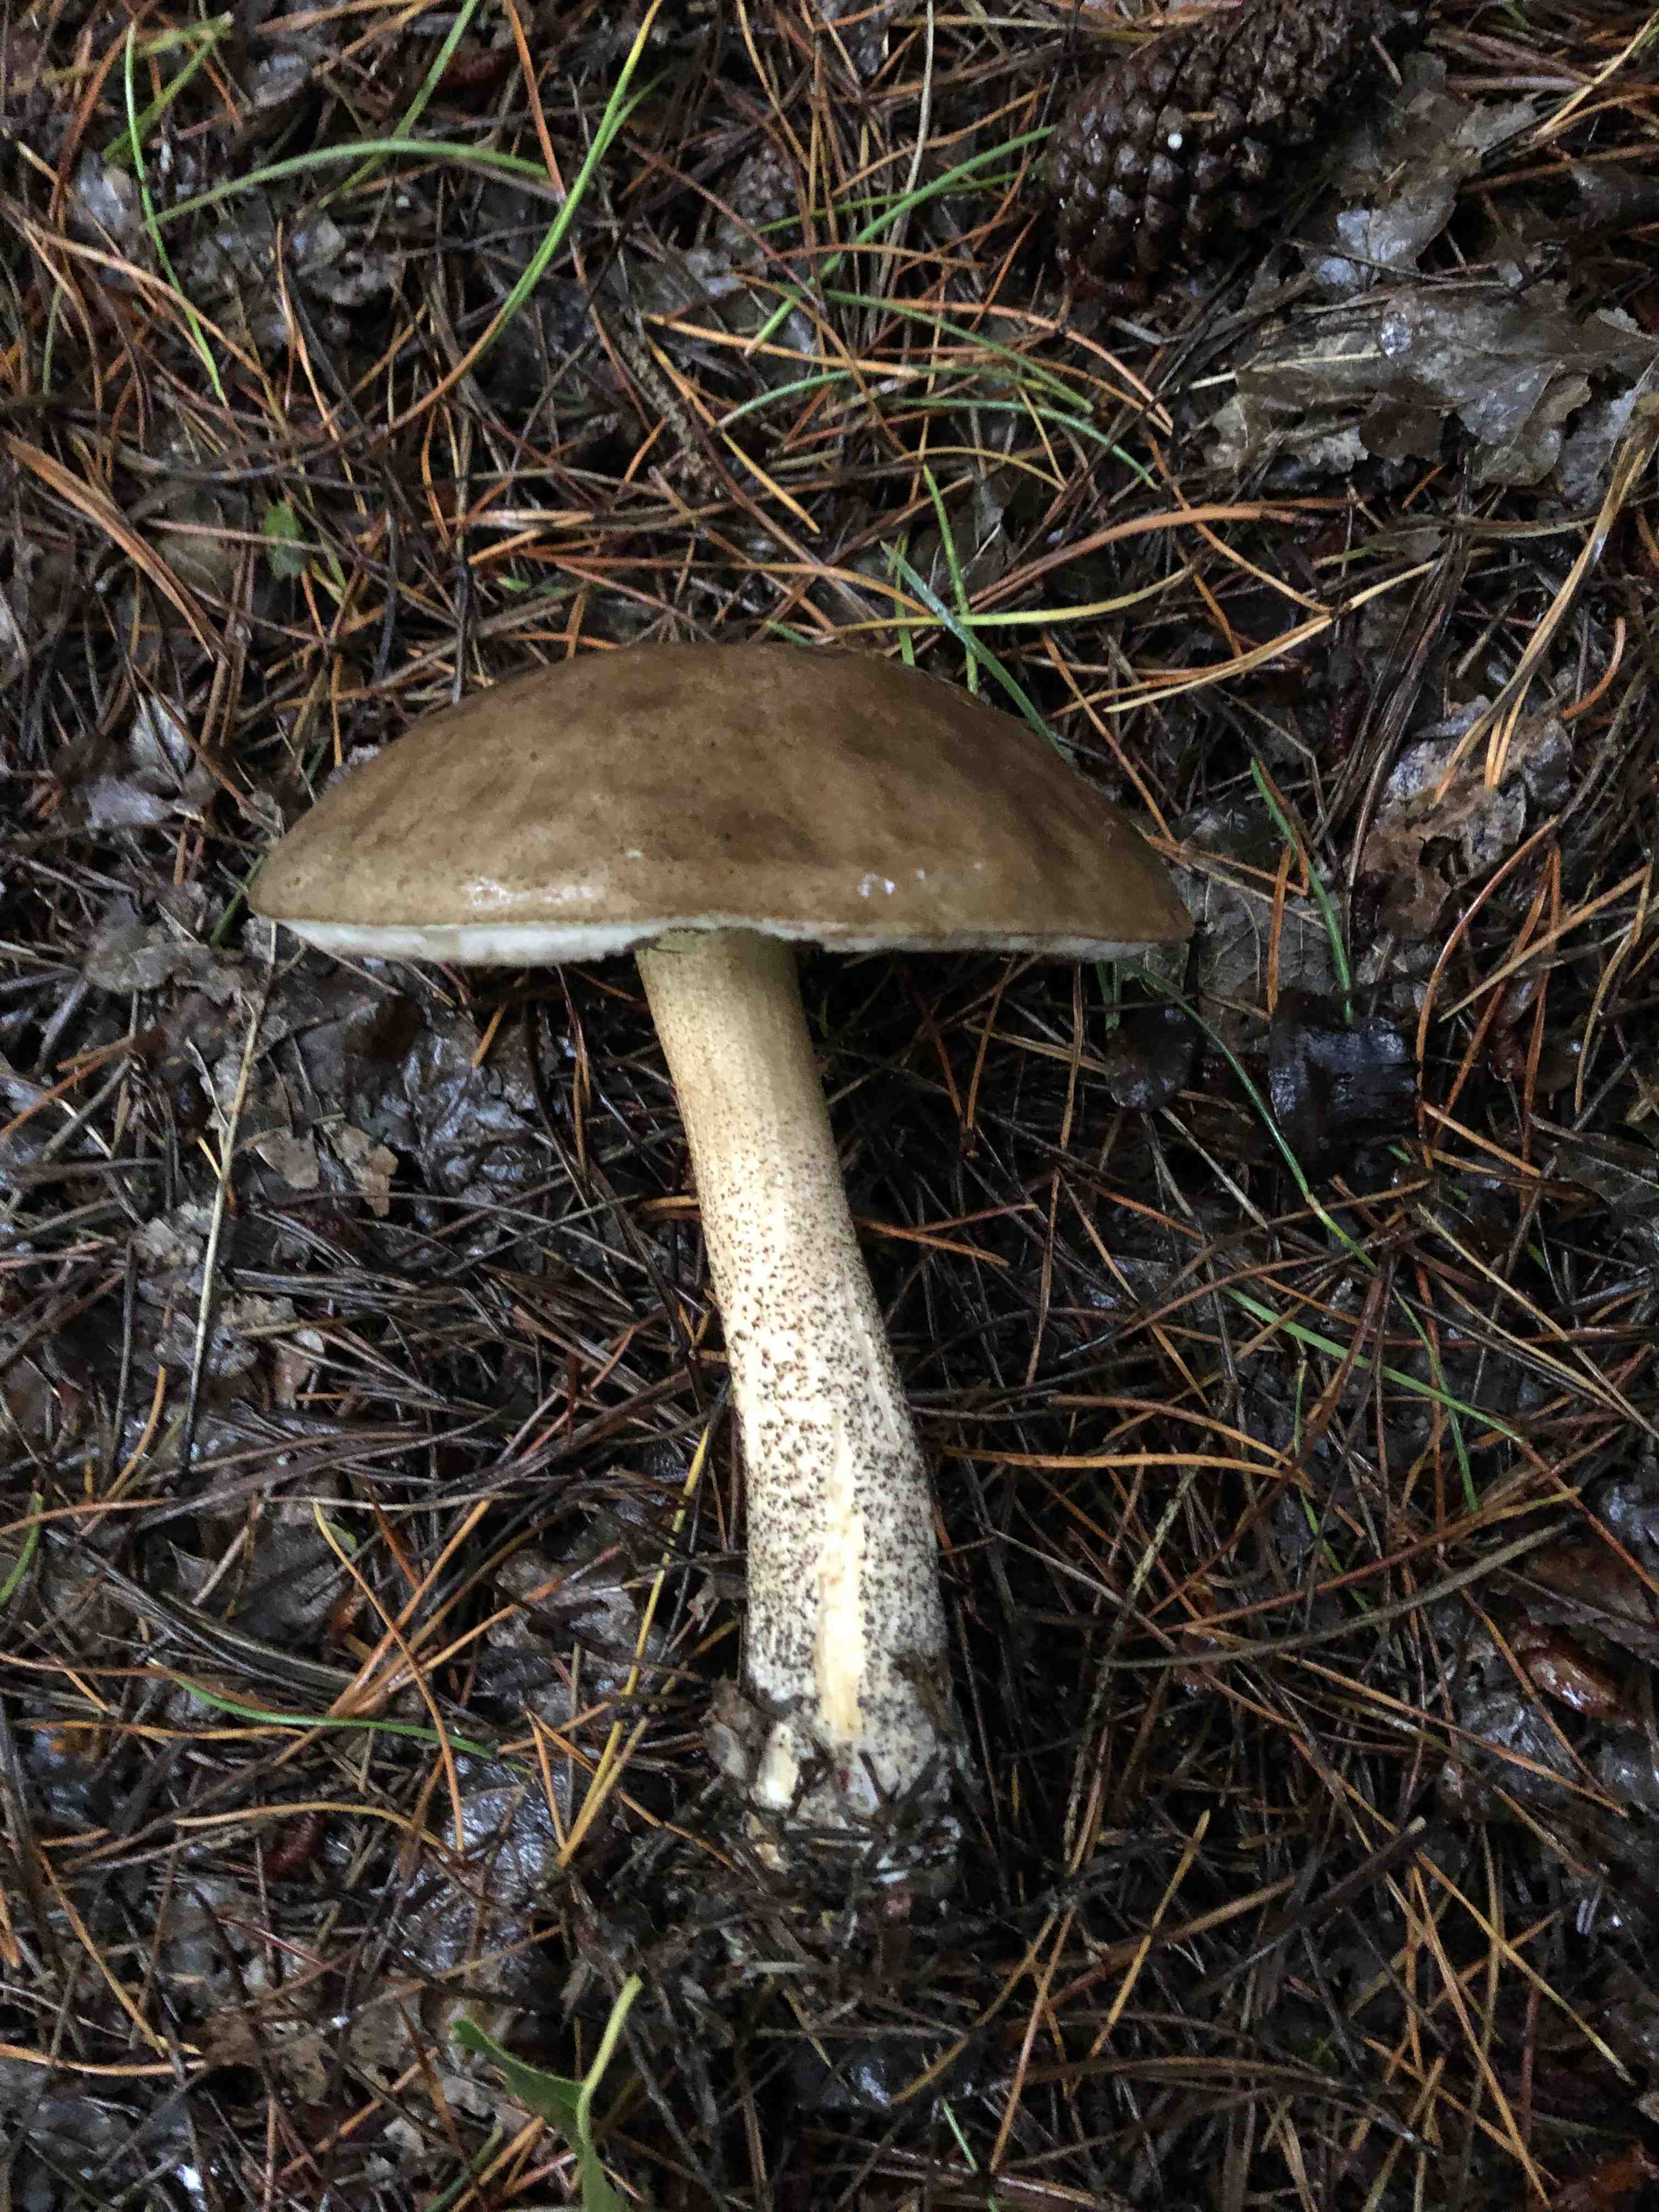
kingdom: Fungi
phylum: Basidiomycota
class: Agaricomycetes
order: Boletales
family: Boletaceae
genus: Leccinum
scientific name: Leccinum scabrum
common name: brun skælrørhat
